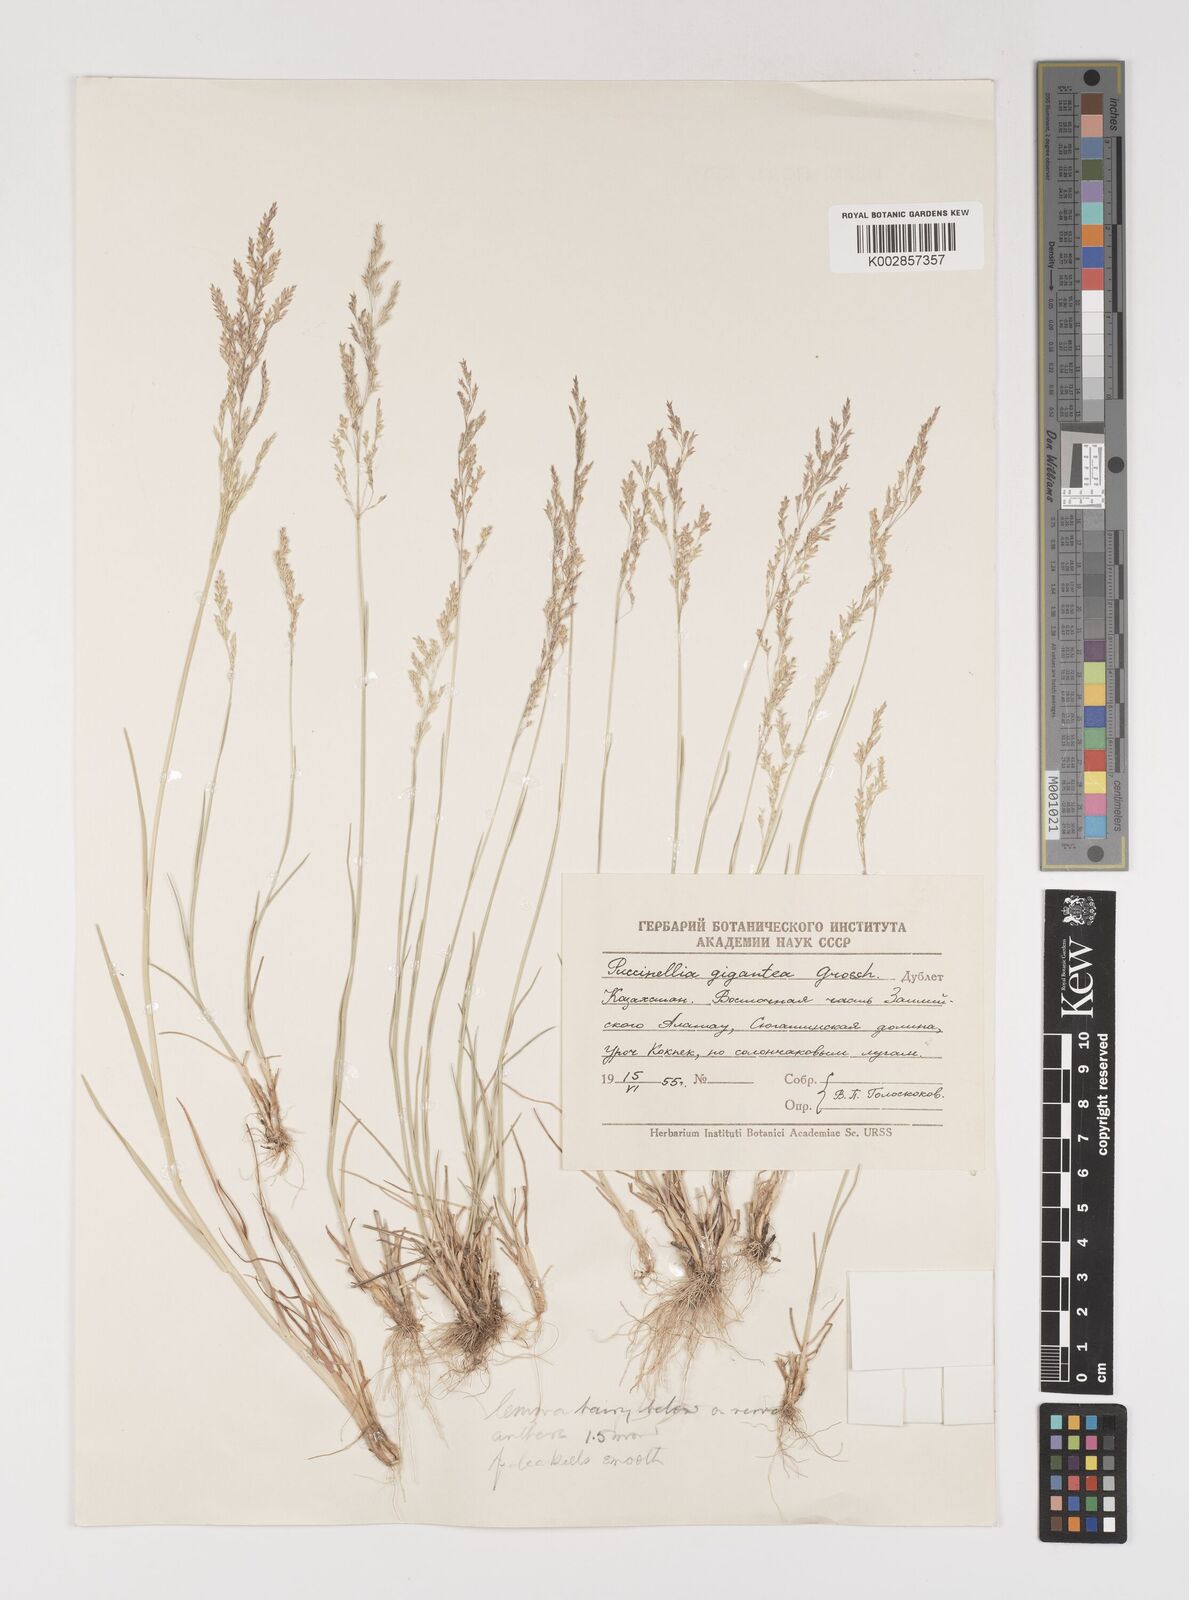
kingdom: Plantae
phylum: Tracheophyta
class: Liliopsida
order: Poales
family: Poaceae
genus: Puccinellia
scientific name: Puccinellia gigantea
